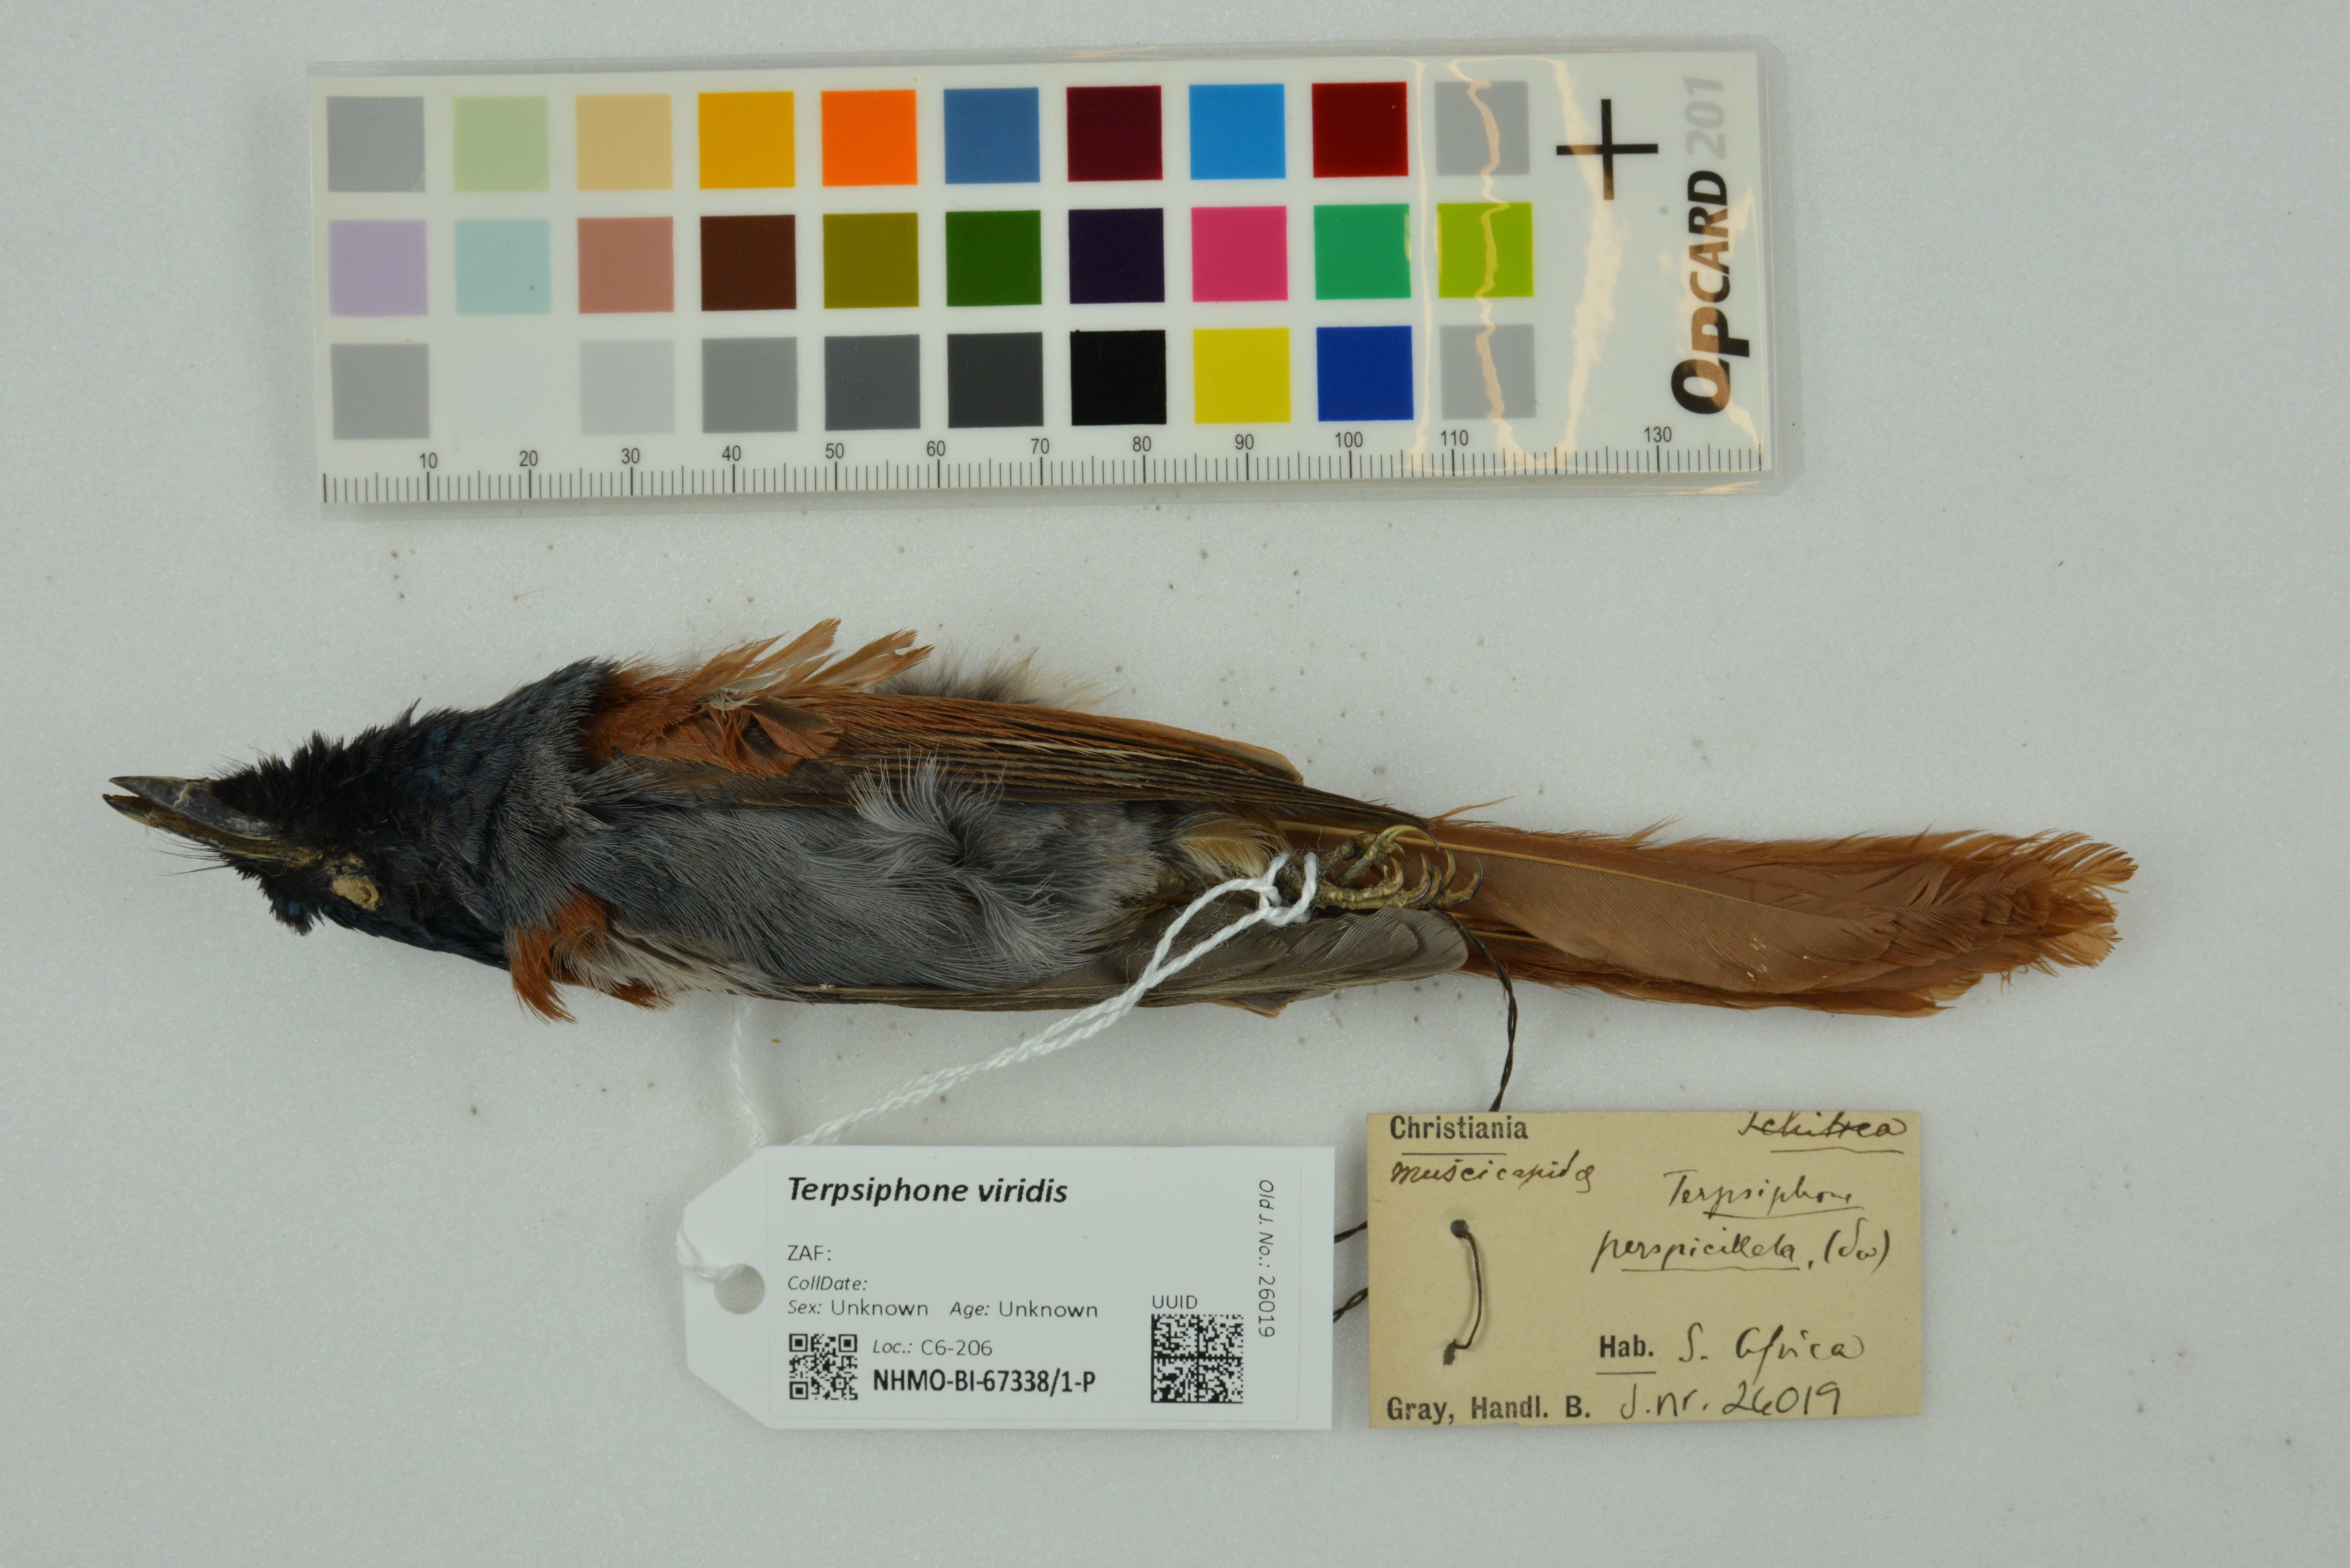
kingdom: Animalia
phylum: Chordata
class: Aves
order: Passeriformes
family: Monarchidae
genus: Terpsiphone
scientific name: Terpsiphone viridis
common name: African paradise flycatcher
